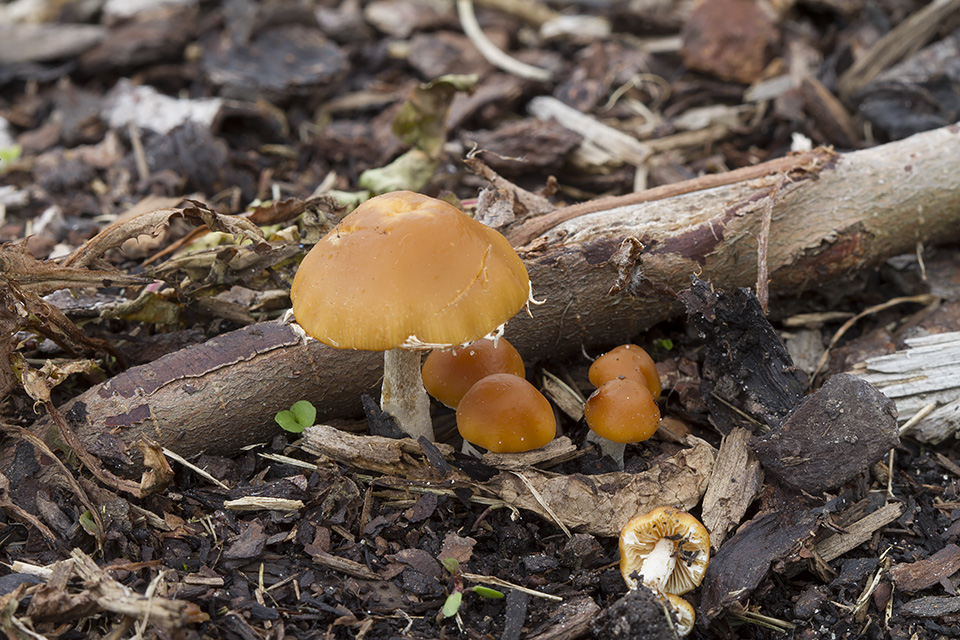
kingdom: Fungi
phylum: Basidiomycota
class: Agaricomycetes
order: Agaricales
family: Bolbitiaceae
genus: Conocybe
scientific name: Conocybe velata
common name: tandet dansehat
